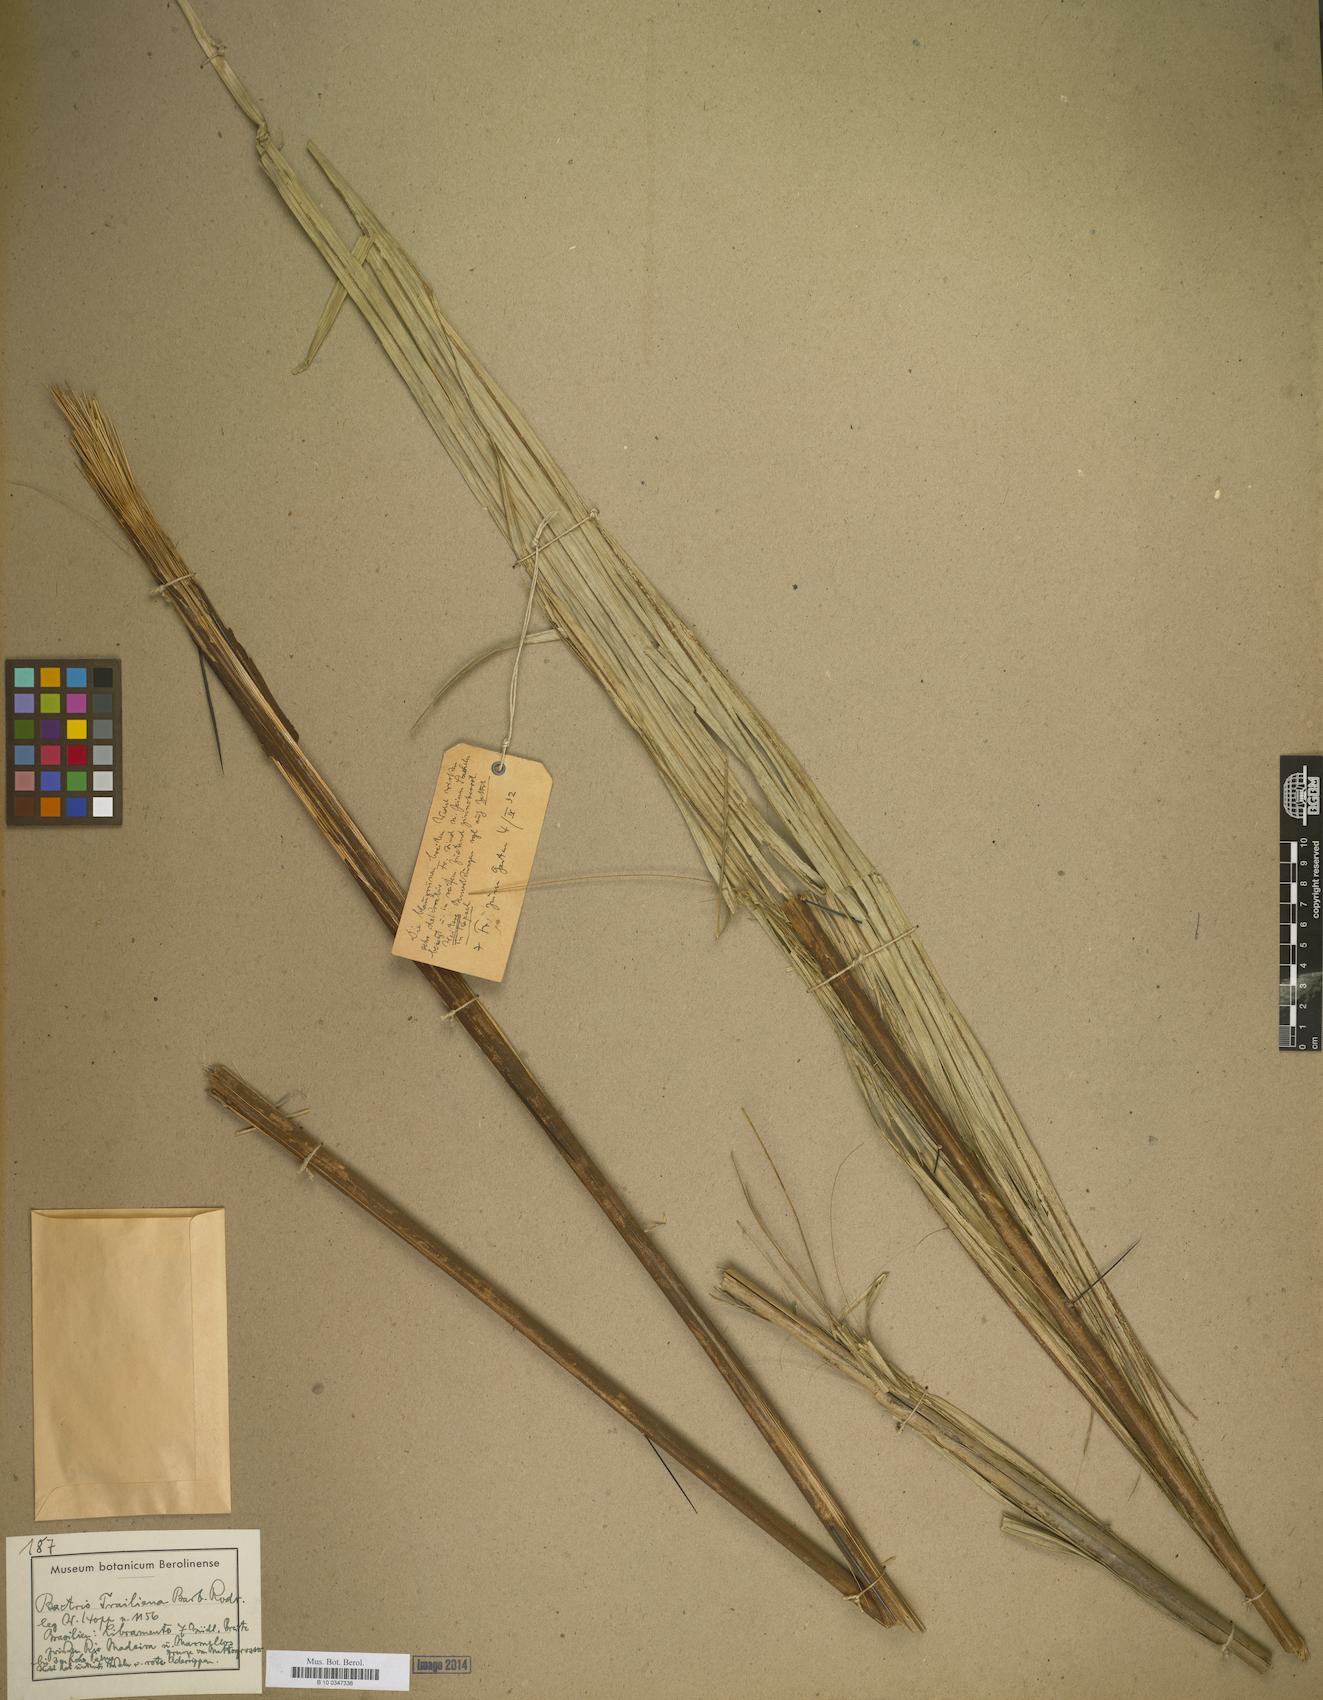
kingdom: Plantae
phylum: Tracheophyta
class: Liliopsida
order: Arecales
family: Arecaceae
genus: Bactris
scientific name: Bactris
